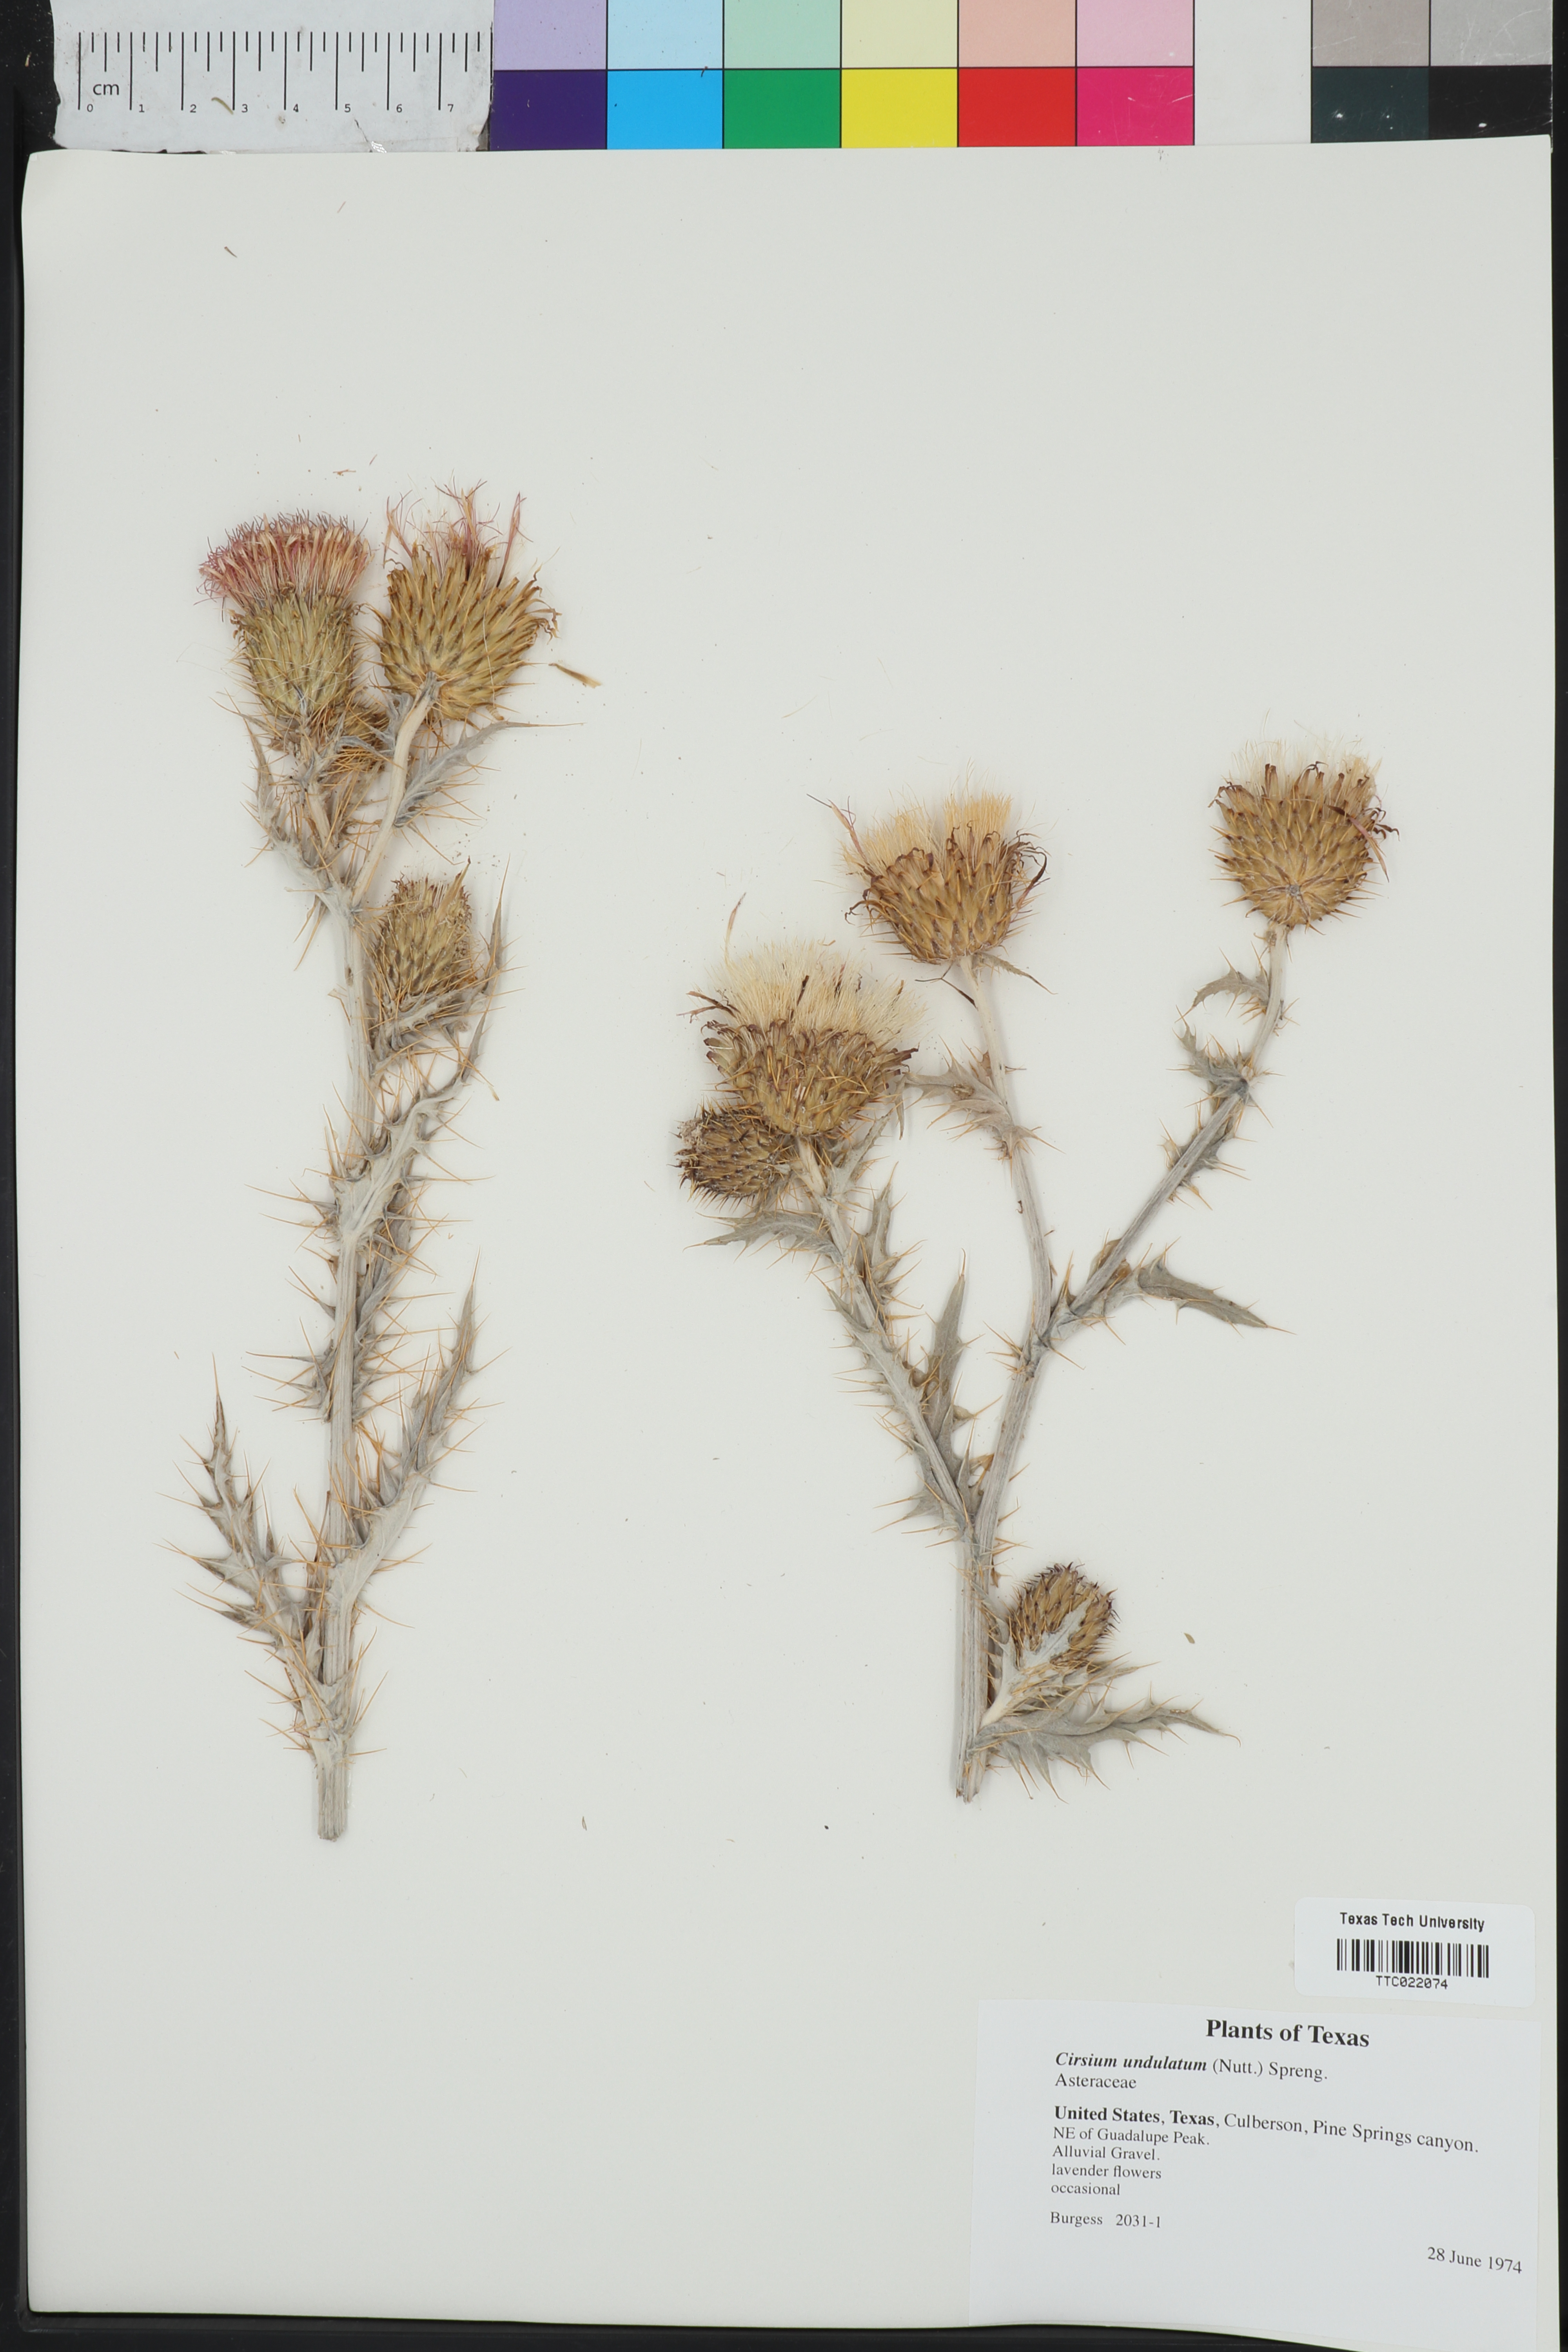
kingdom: Plantae
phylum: Tracheophyta
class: Magnoliopsida
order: Asterales
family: Asteraceae
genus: Cirsium
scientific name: Cirsium undulatum
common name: Pasture thistle
